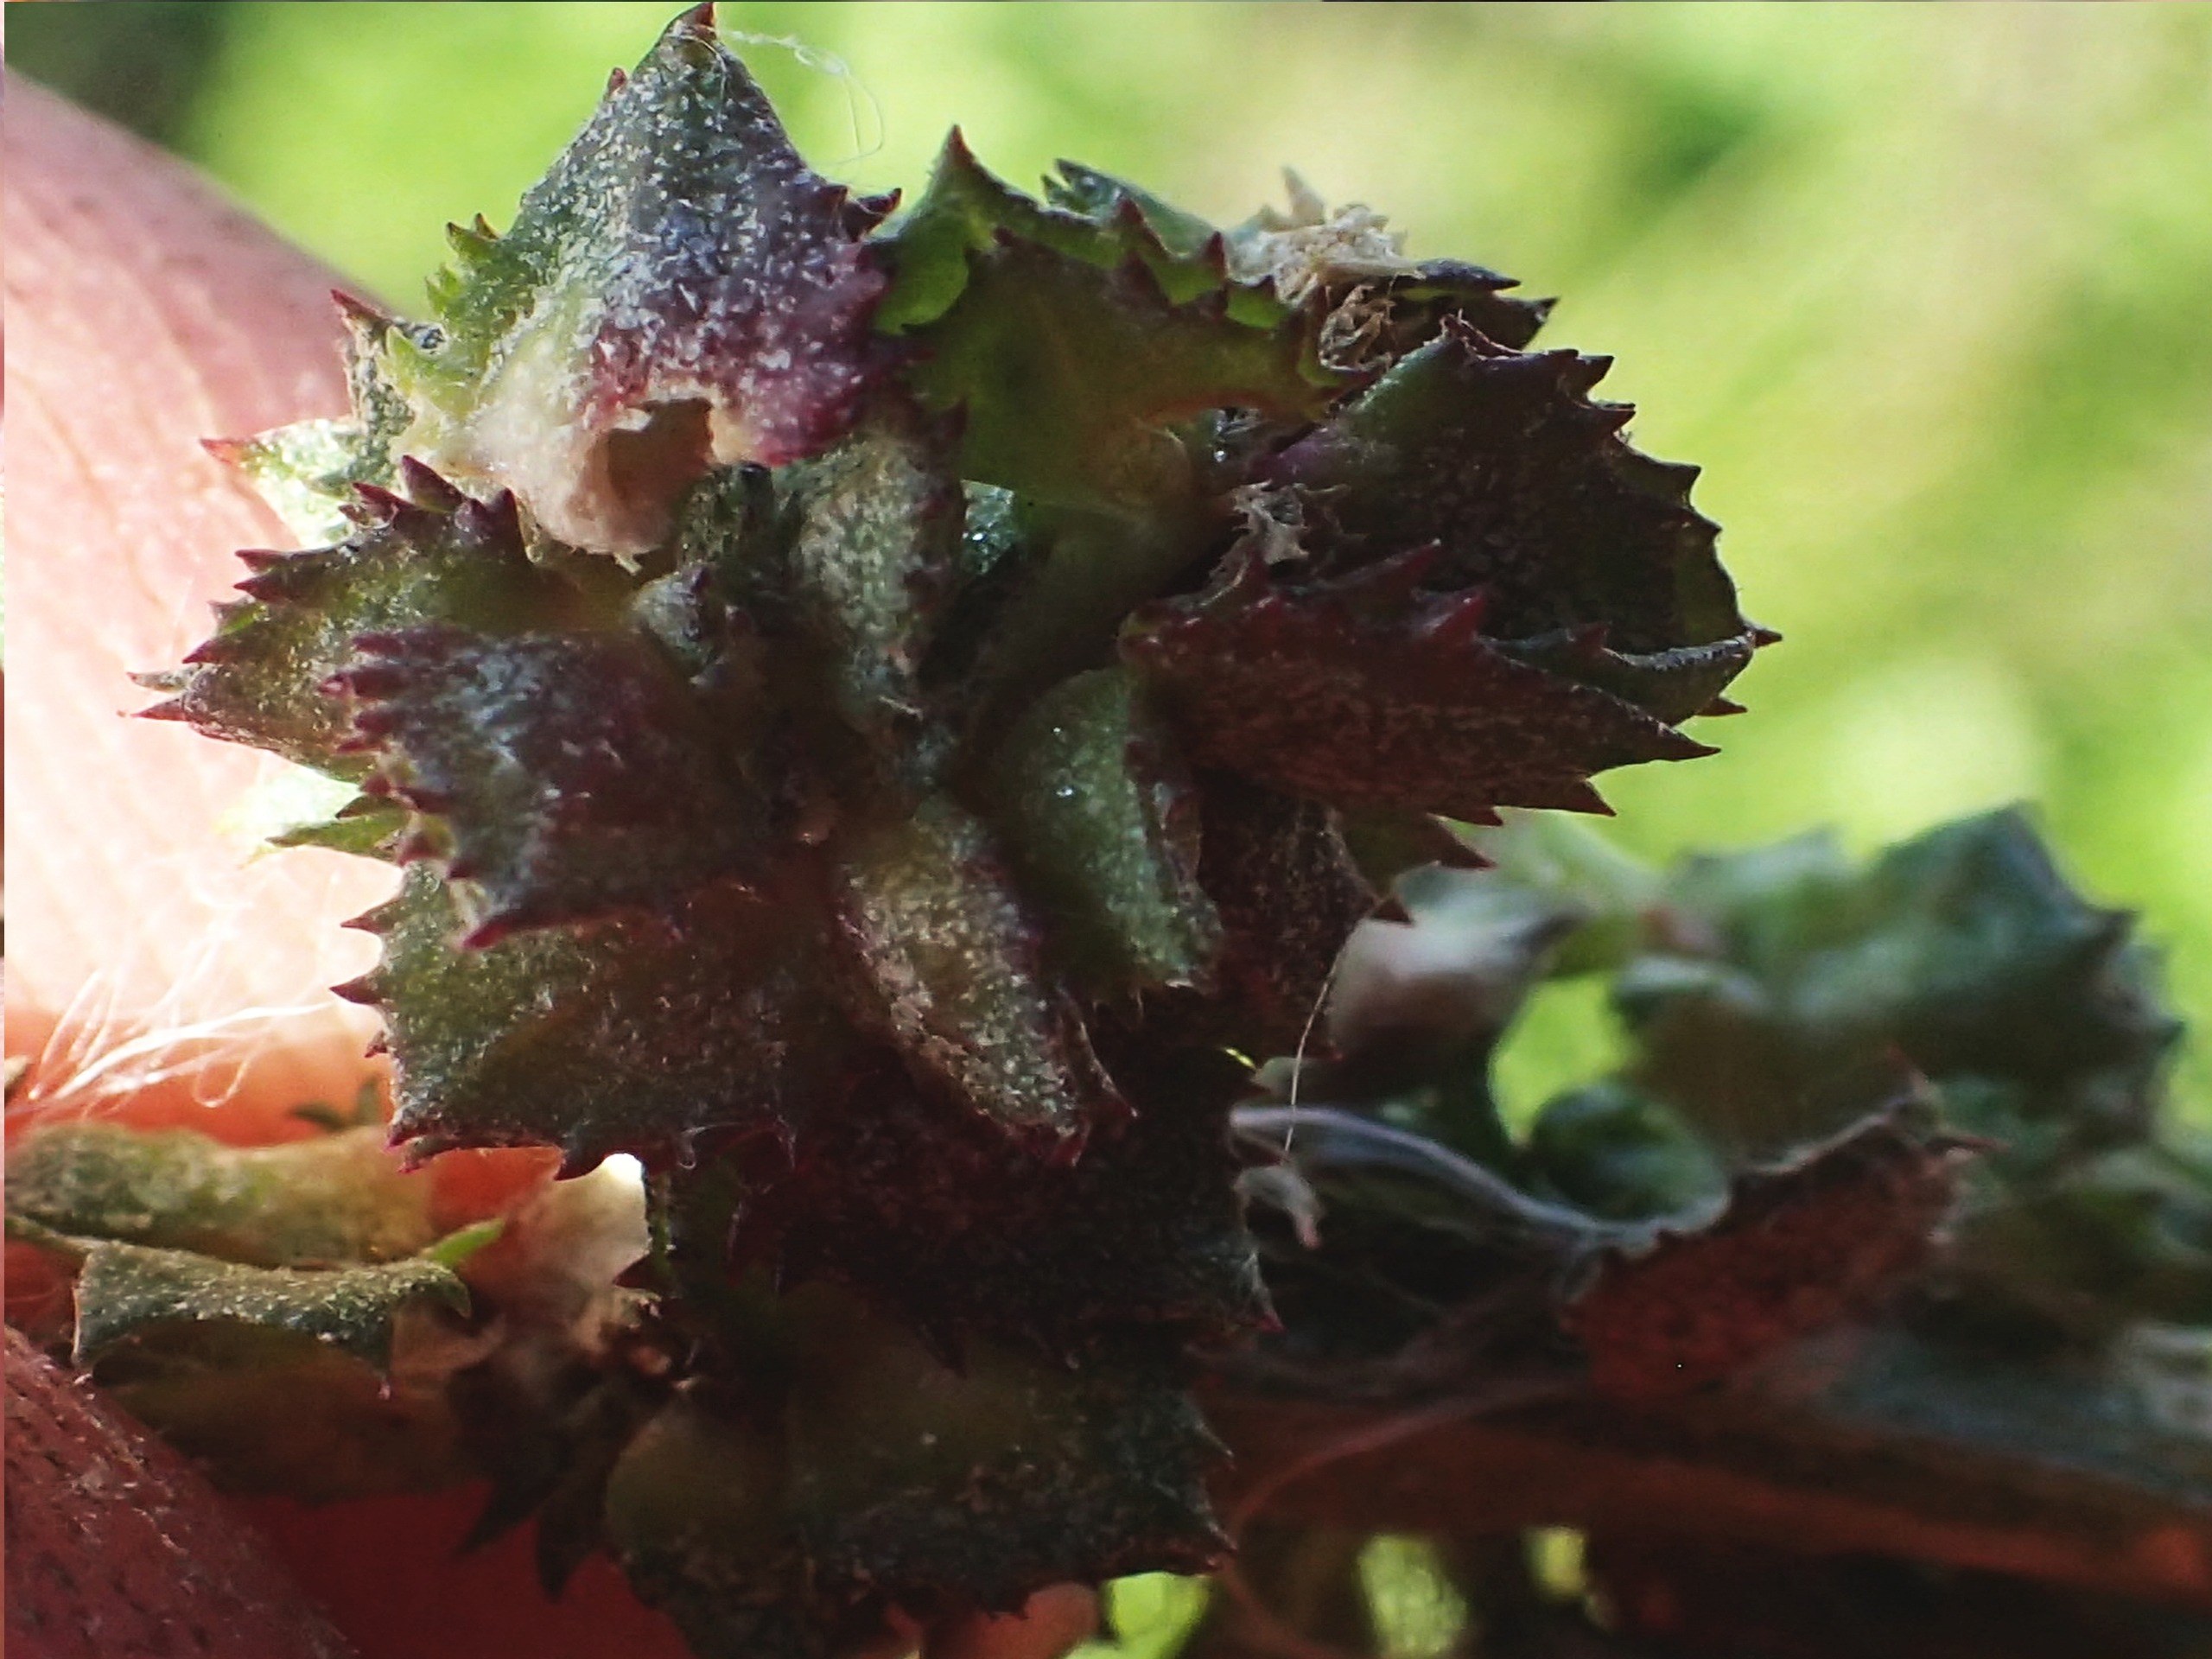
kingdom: Plantae
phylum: Tracheophyta
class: Magnoliopsida
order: Caryophyllales
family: Amaranthaceae
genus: Atriplex
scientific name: Atriplex prostrata
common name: Spyd-mælde
